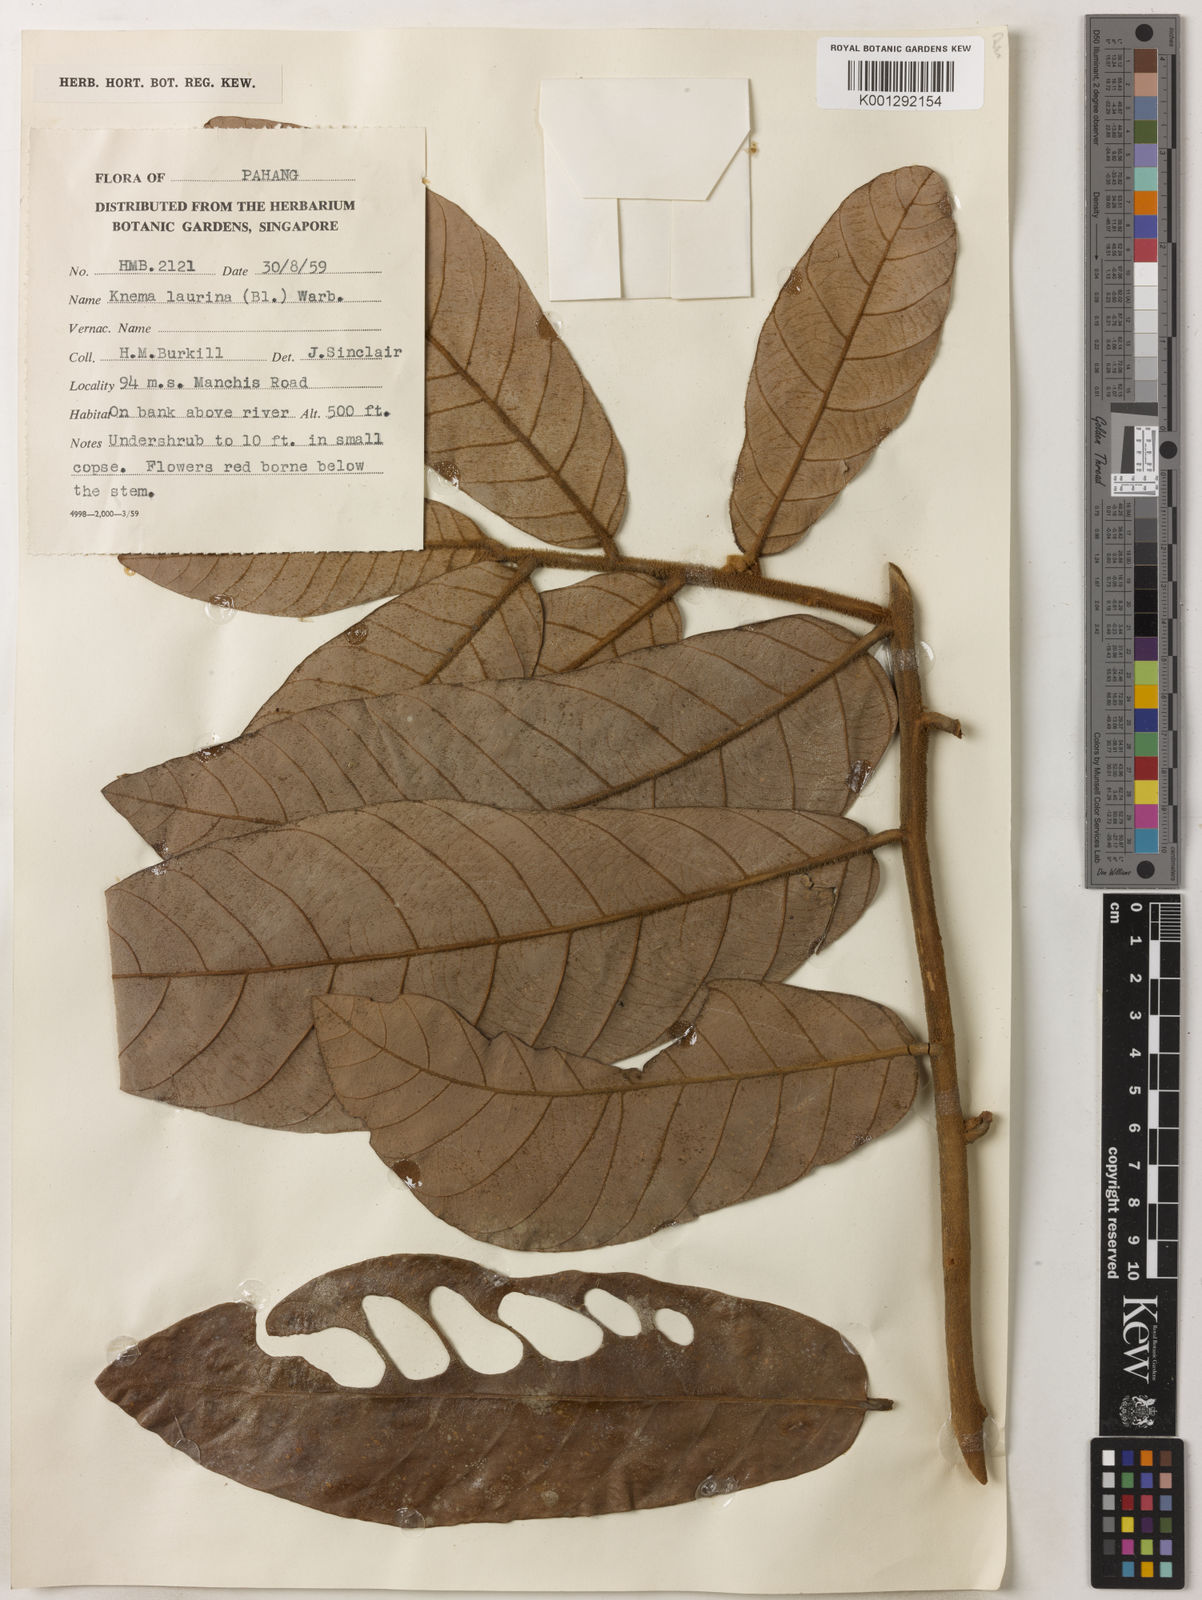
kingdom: Plantae
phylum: Tracheophyta
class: Magnoliopsida
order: Magnoliales
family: Myristicaceae
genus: Knema
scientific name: Knema laurina
